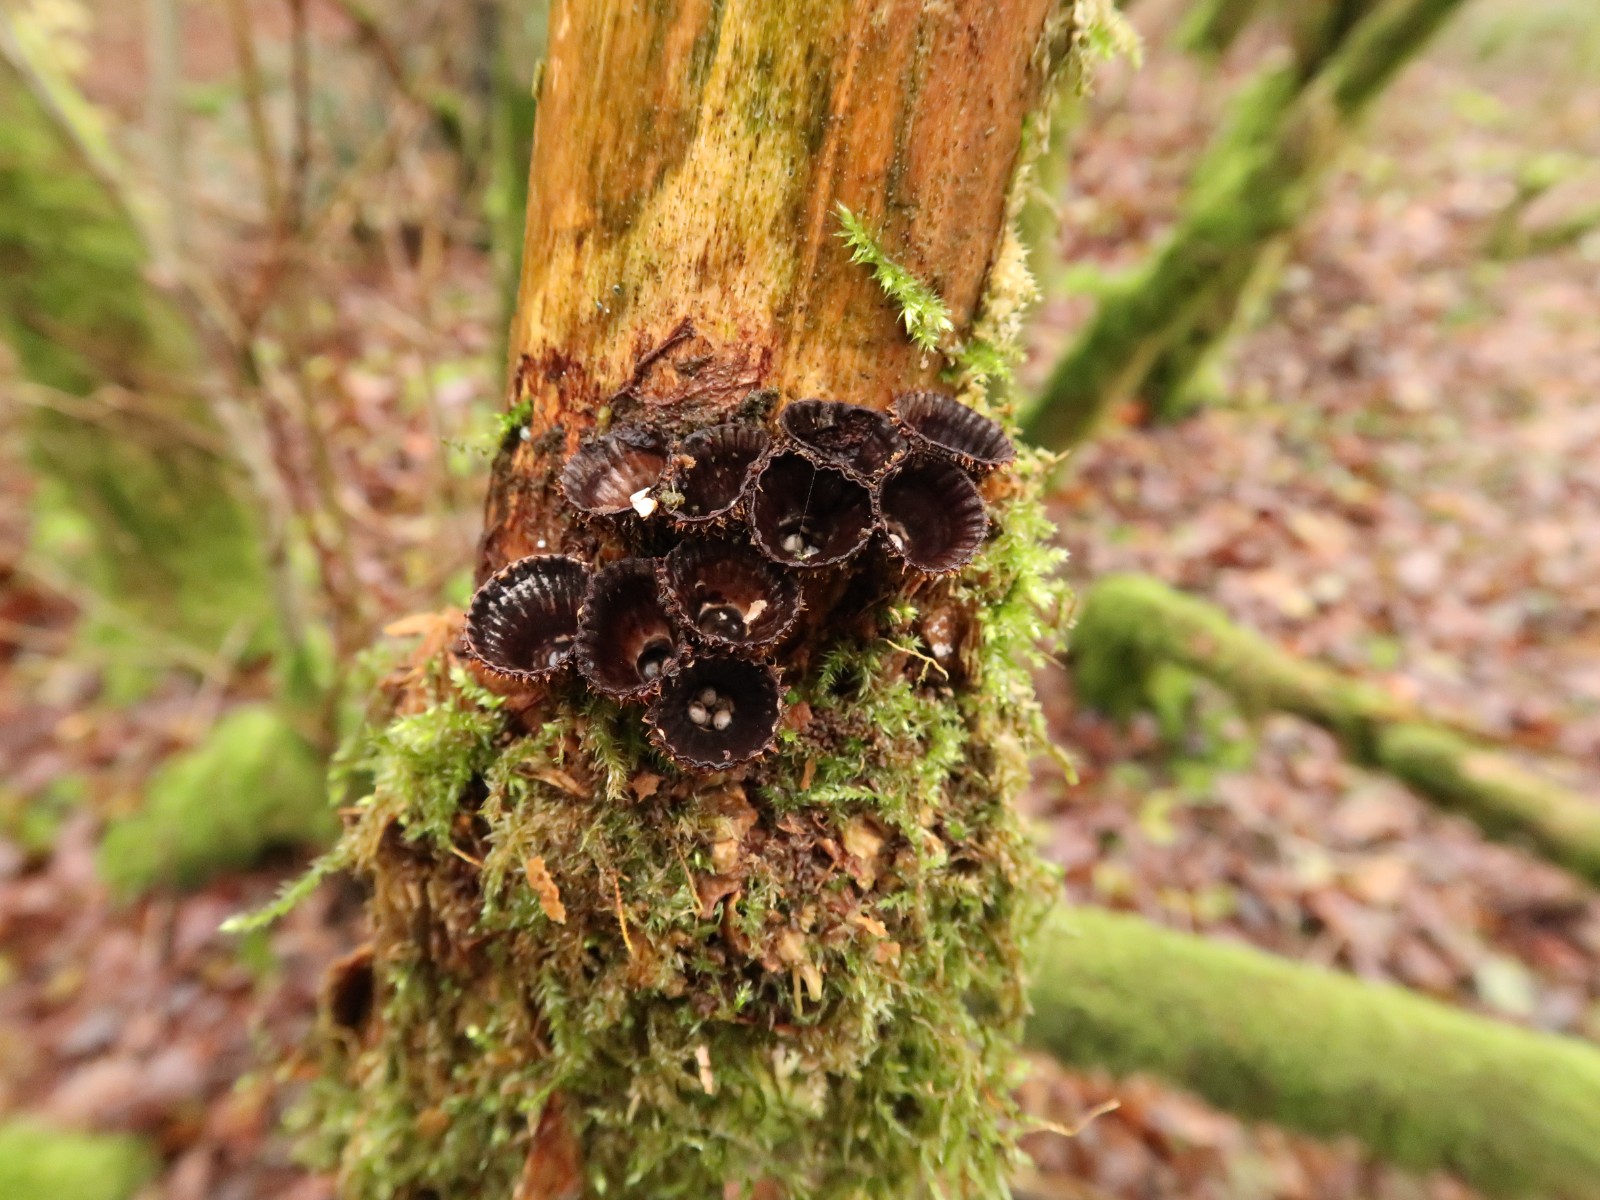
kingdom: Fungi
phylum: Basidiomycota
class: Agaricomycetes
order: Agaricales
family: Agaricaceae
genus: Cyathus
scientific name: Cyathus striatus
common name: stribet redesvamp
